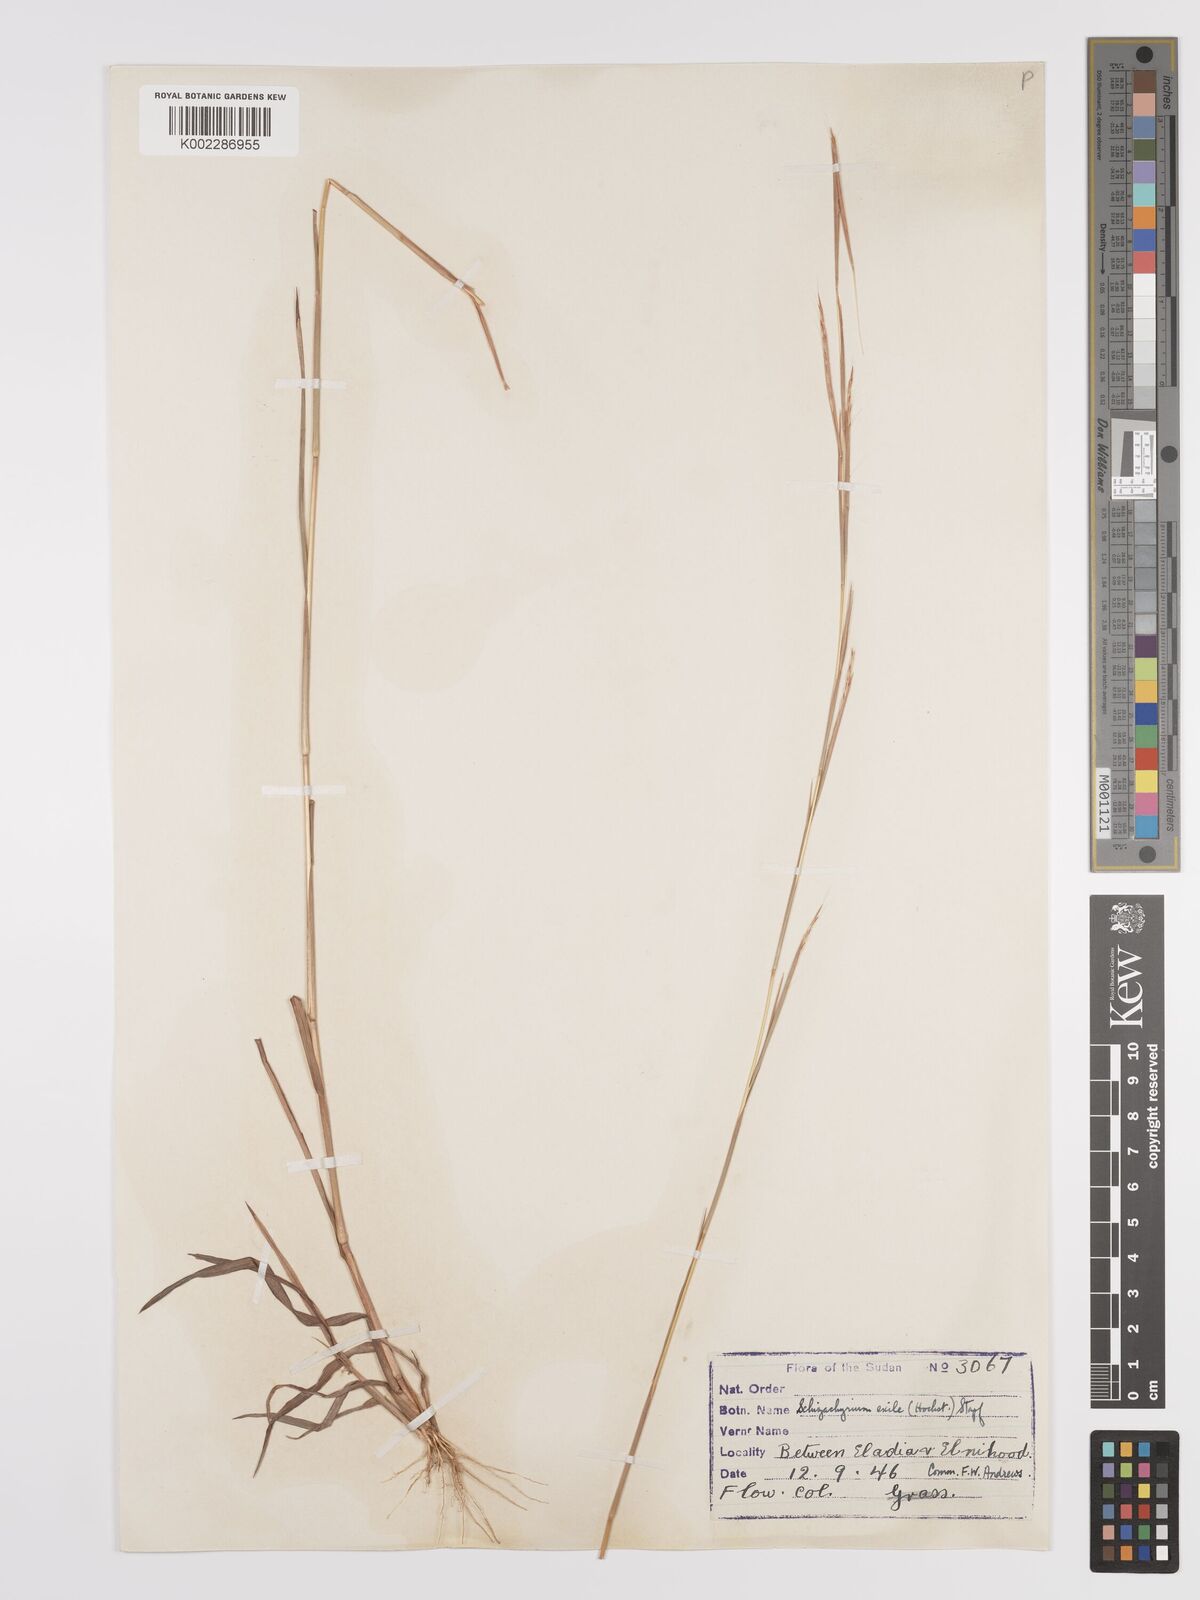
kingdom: Plantae
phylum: Tracheophyta
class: Liliopsida
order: Poales
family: Poaceae
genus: Schizachyrium
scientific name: Schizachyrium exile
